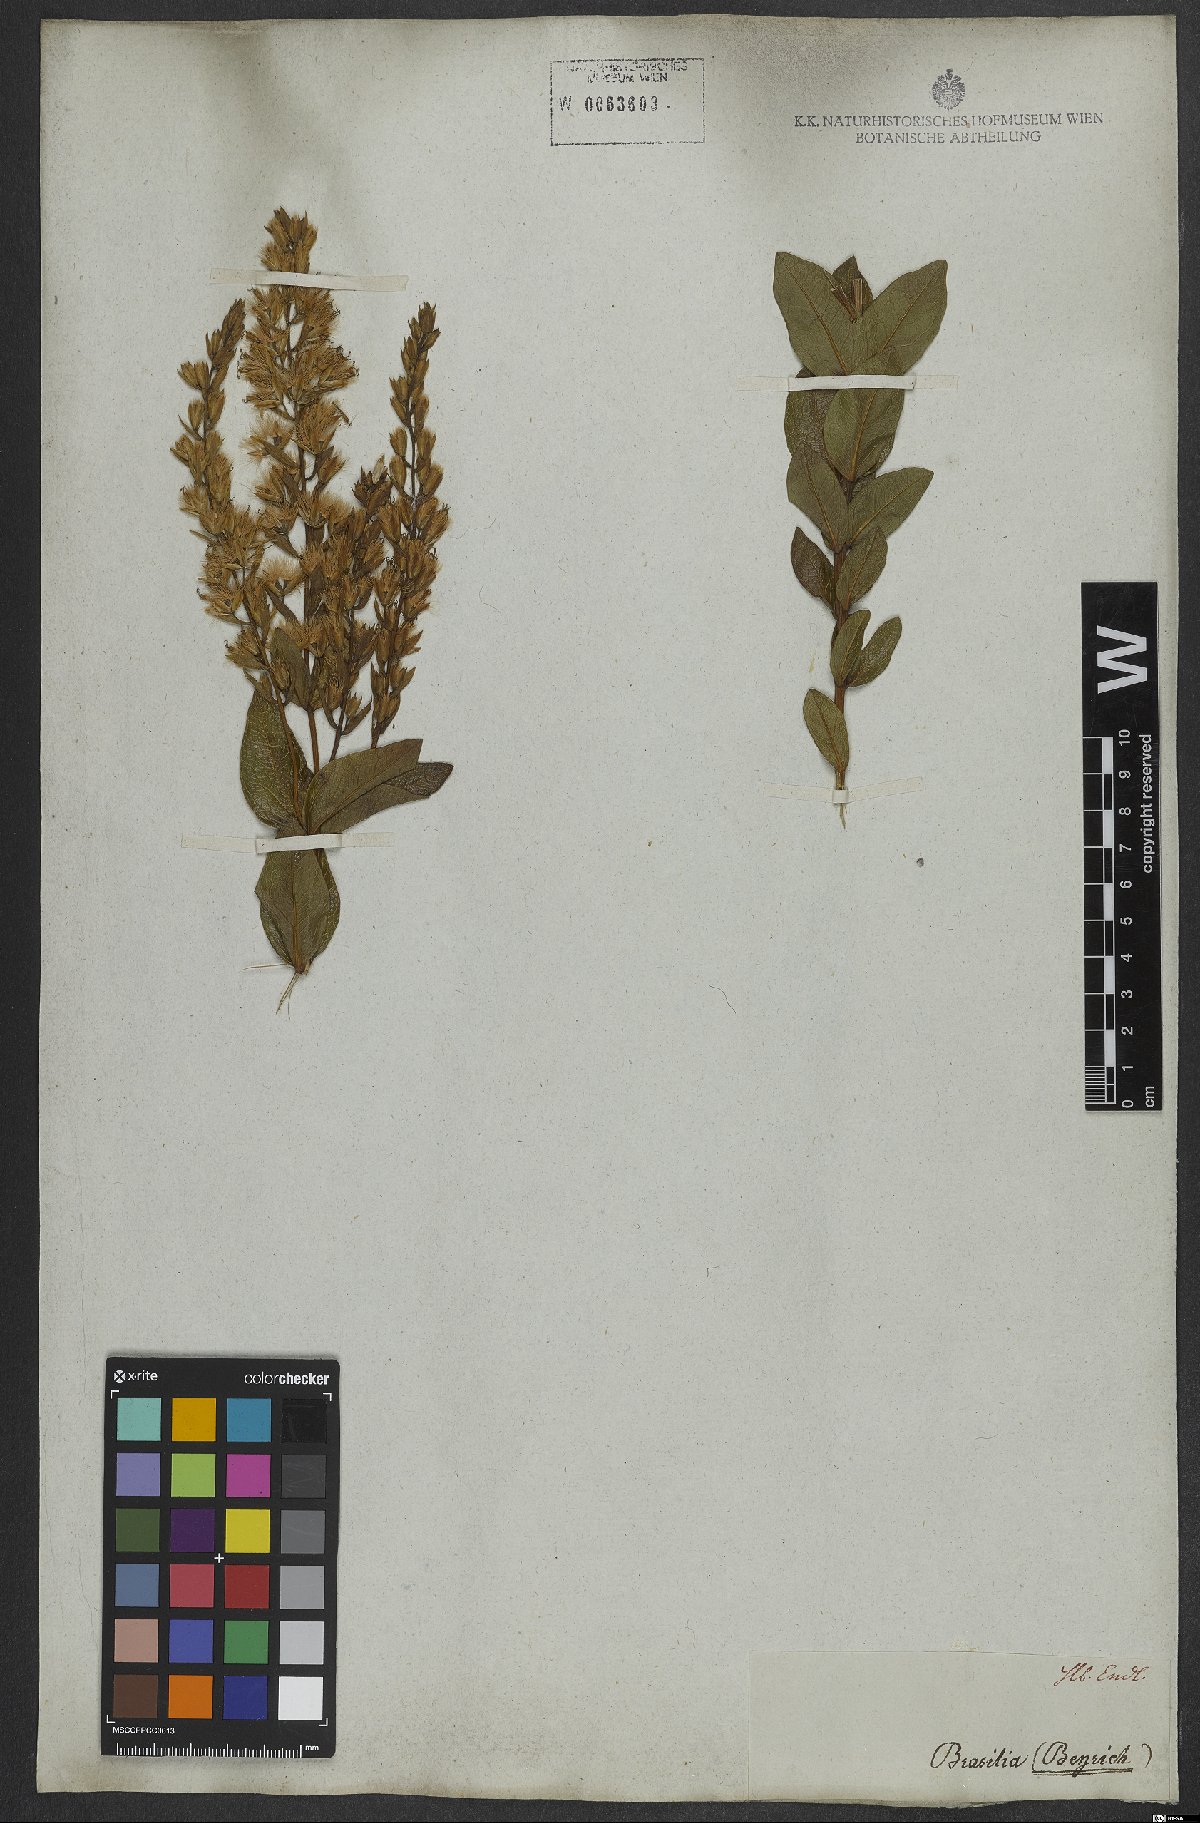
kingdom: Plantae
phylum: Tracheophyta
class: Magnoliopsida
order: Asterales
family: Asteraceae
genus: Mikania
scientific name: Mikania oblongifolia
